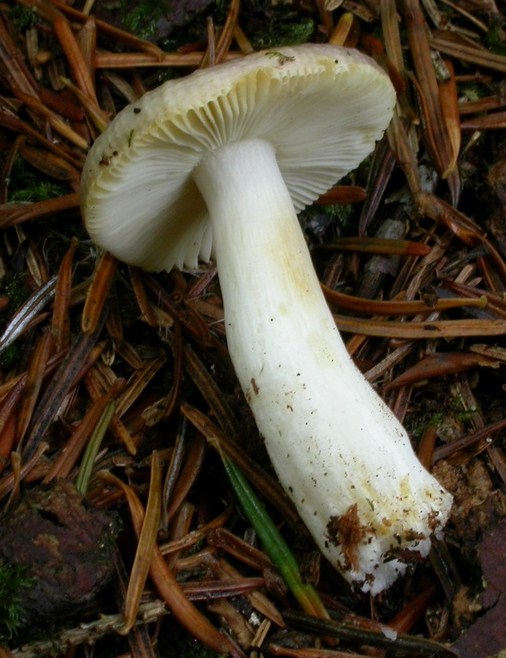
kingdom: Fungi
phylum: Basidiomycota
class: Agaricomycetes
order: Russulales
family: Russulaceae
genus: Russula
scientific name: Russula puellaris
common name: gulstokket skørhat
